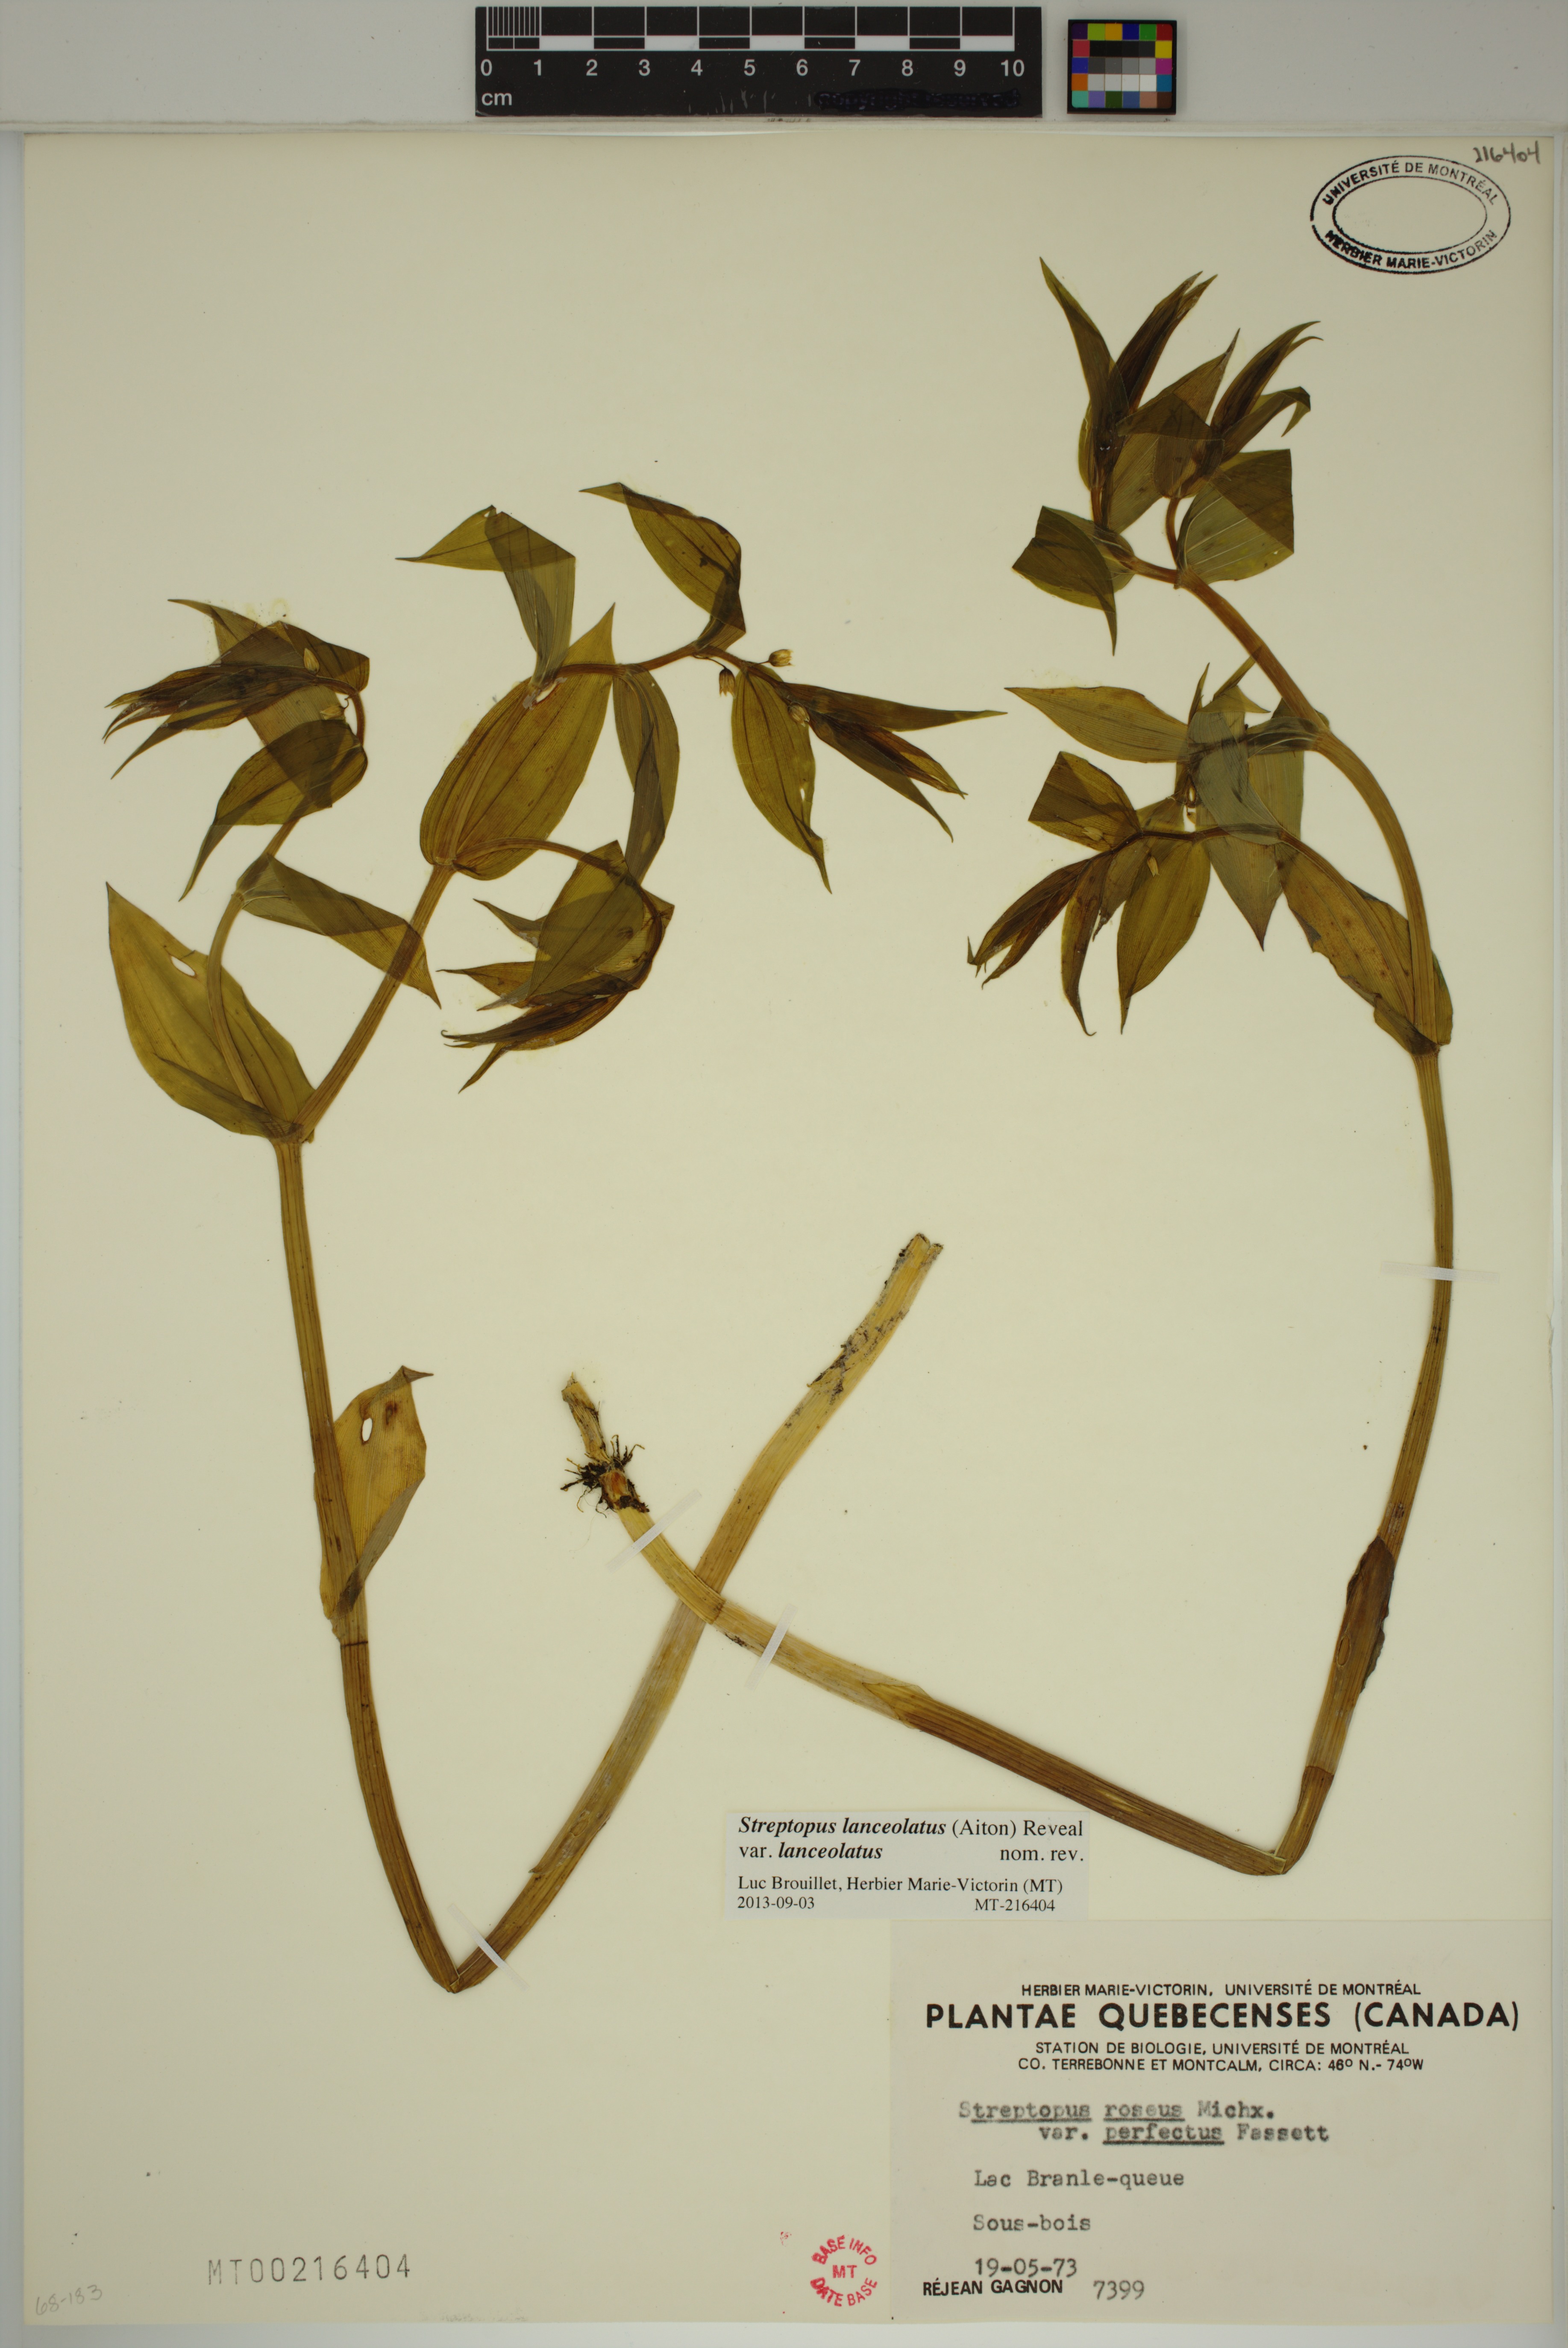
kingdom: Plantae
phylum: Tracheophyta
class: Liliopsida
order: Liliales
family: Liliaceae
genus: Streptopus
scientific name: Streptopus lanceolatus
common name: Rose mandarin
